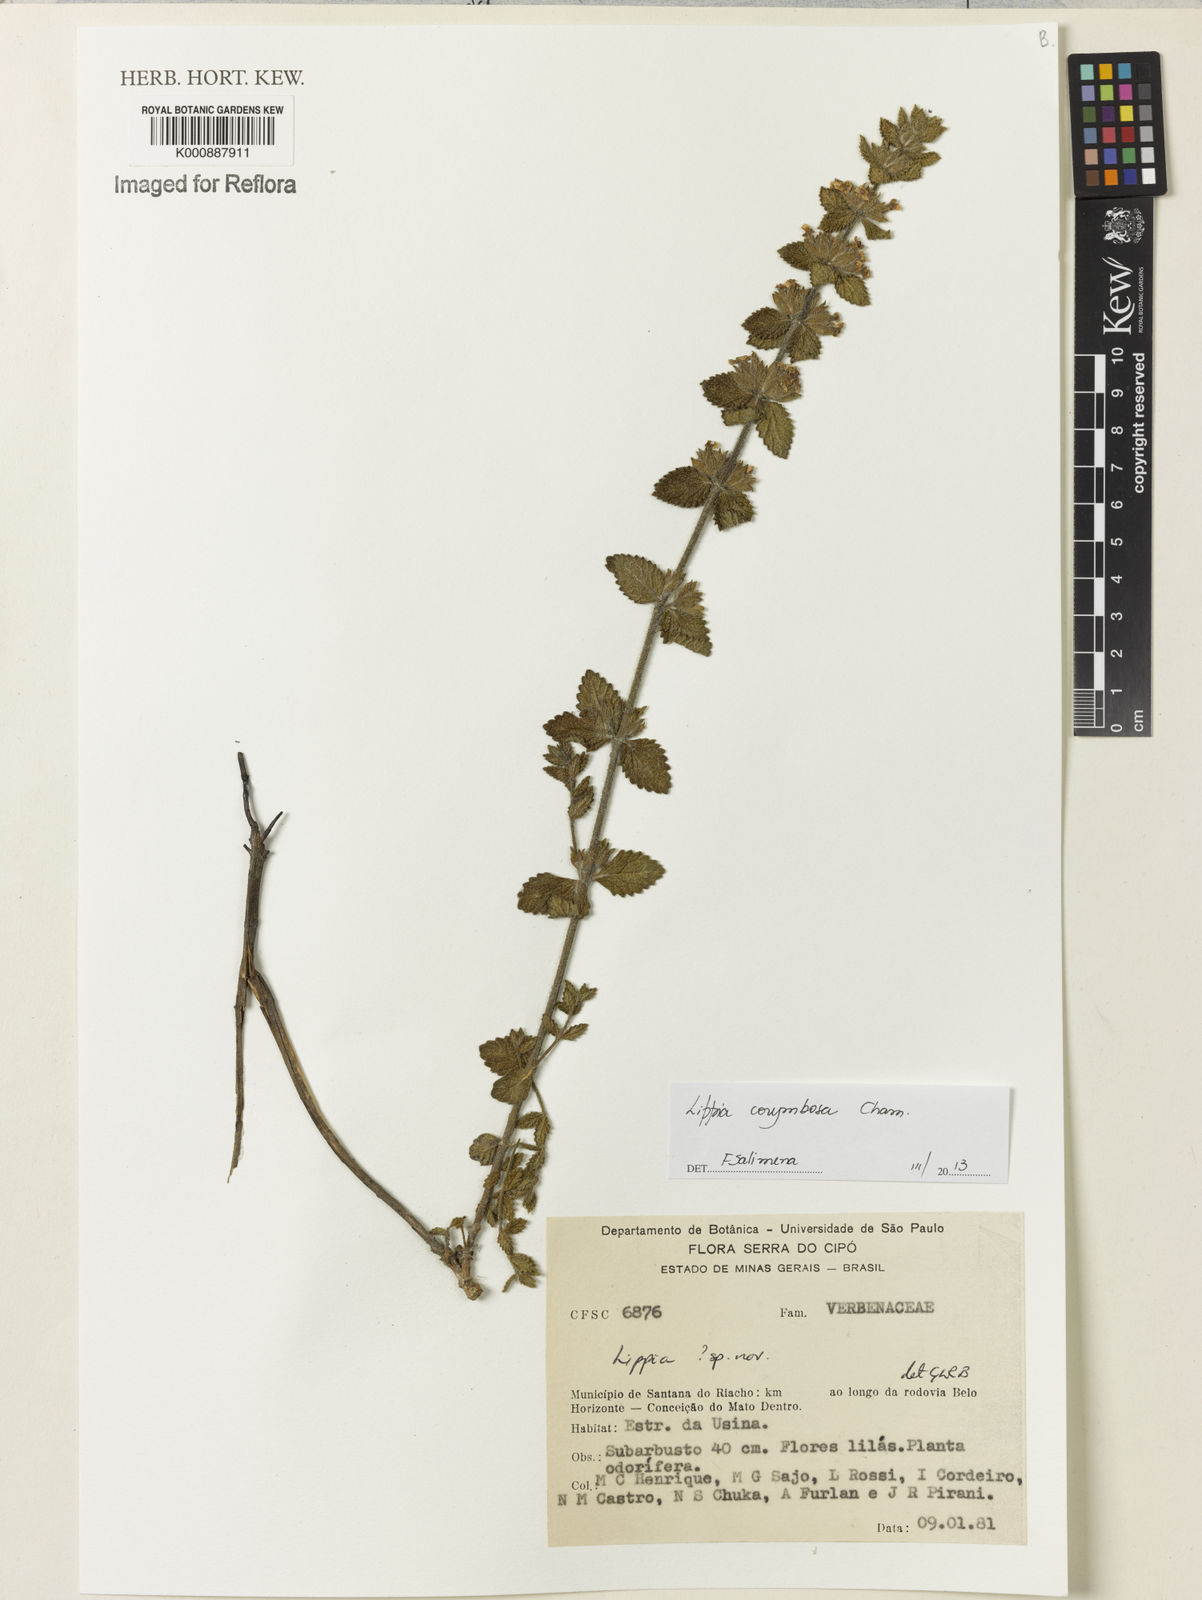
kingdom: Plantae
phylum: Tracheophyta
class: Magnoliopsida
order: Lamiales
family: Verbenaceae
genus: Lippia
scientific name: Lippia corymbosa
